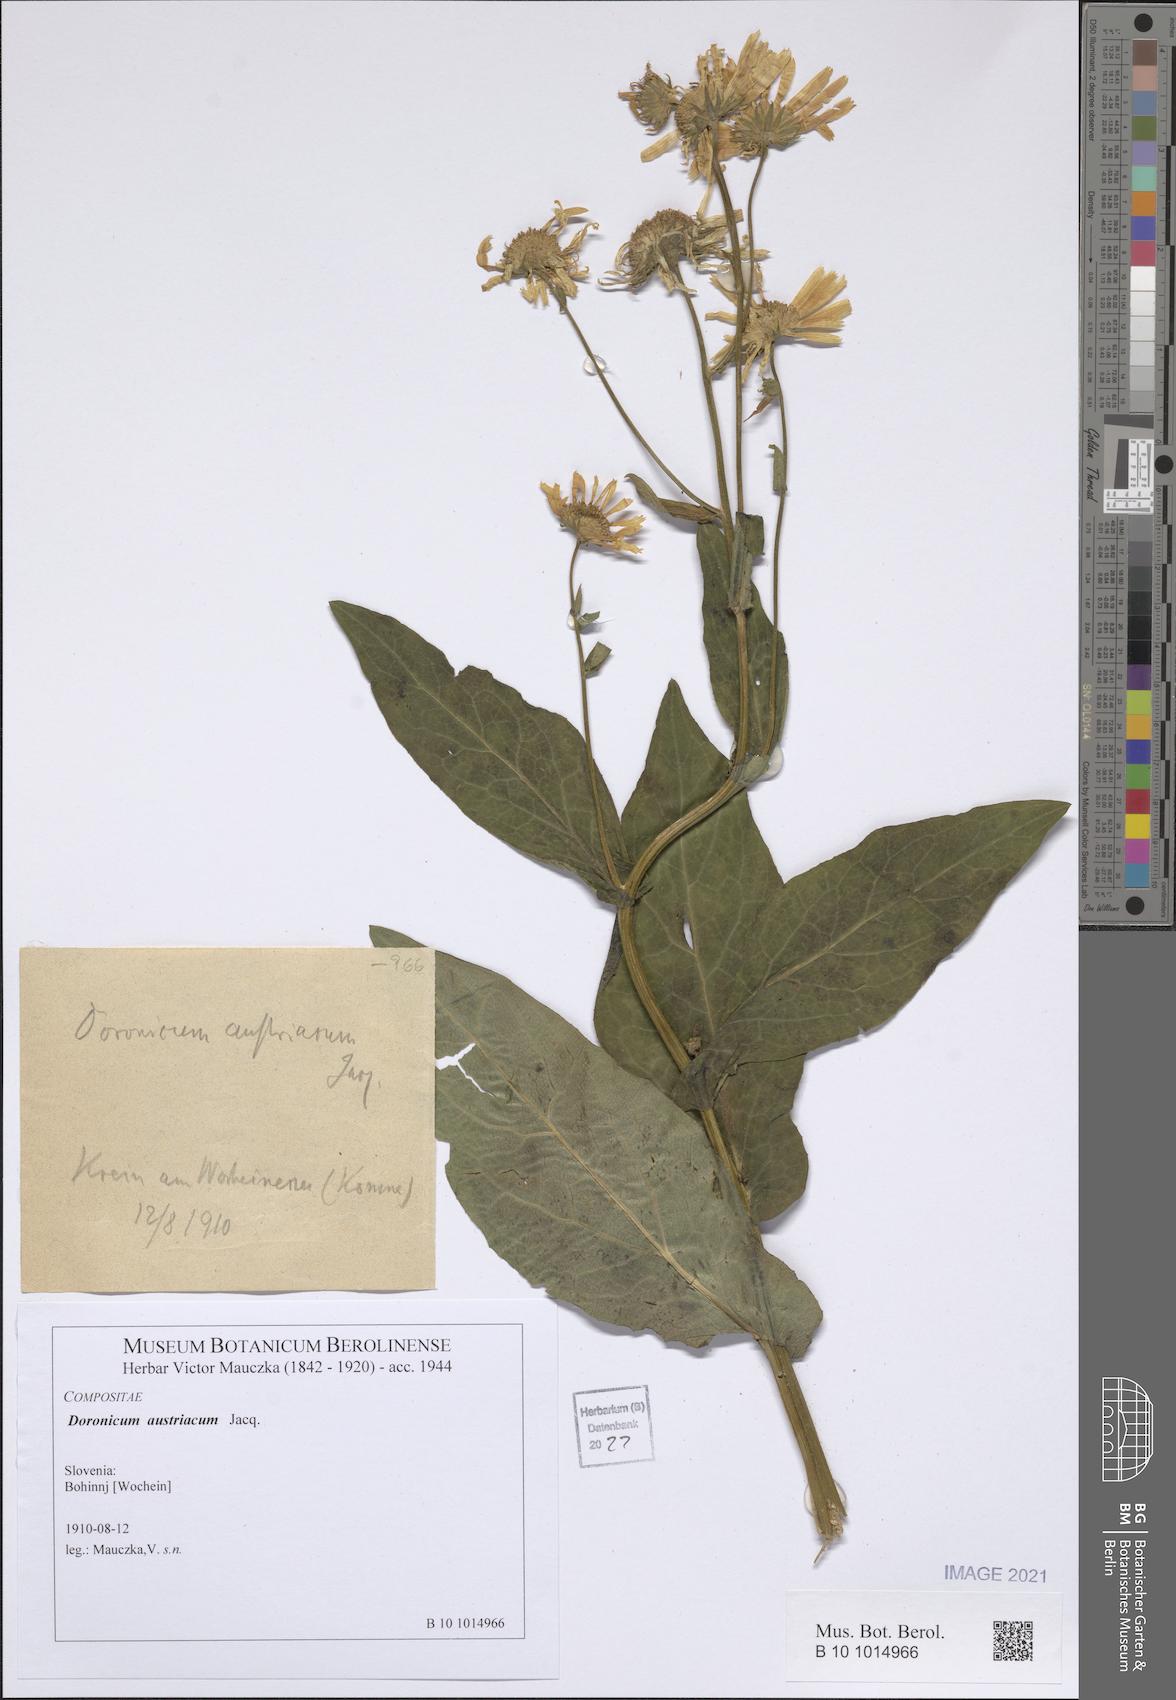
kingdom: Plantae
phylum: Tracheophyta
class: Magnoliopsida
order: Asterales
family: Asteraceae
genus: Doronicum
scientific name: Doronicum austriacum
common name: Austrian leopard's-bane
